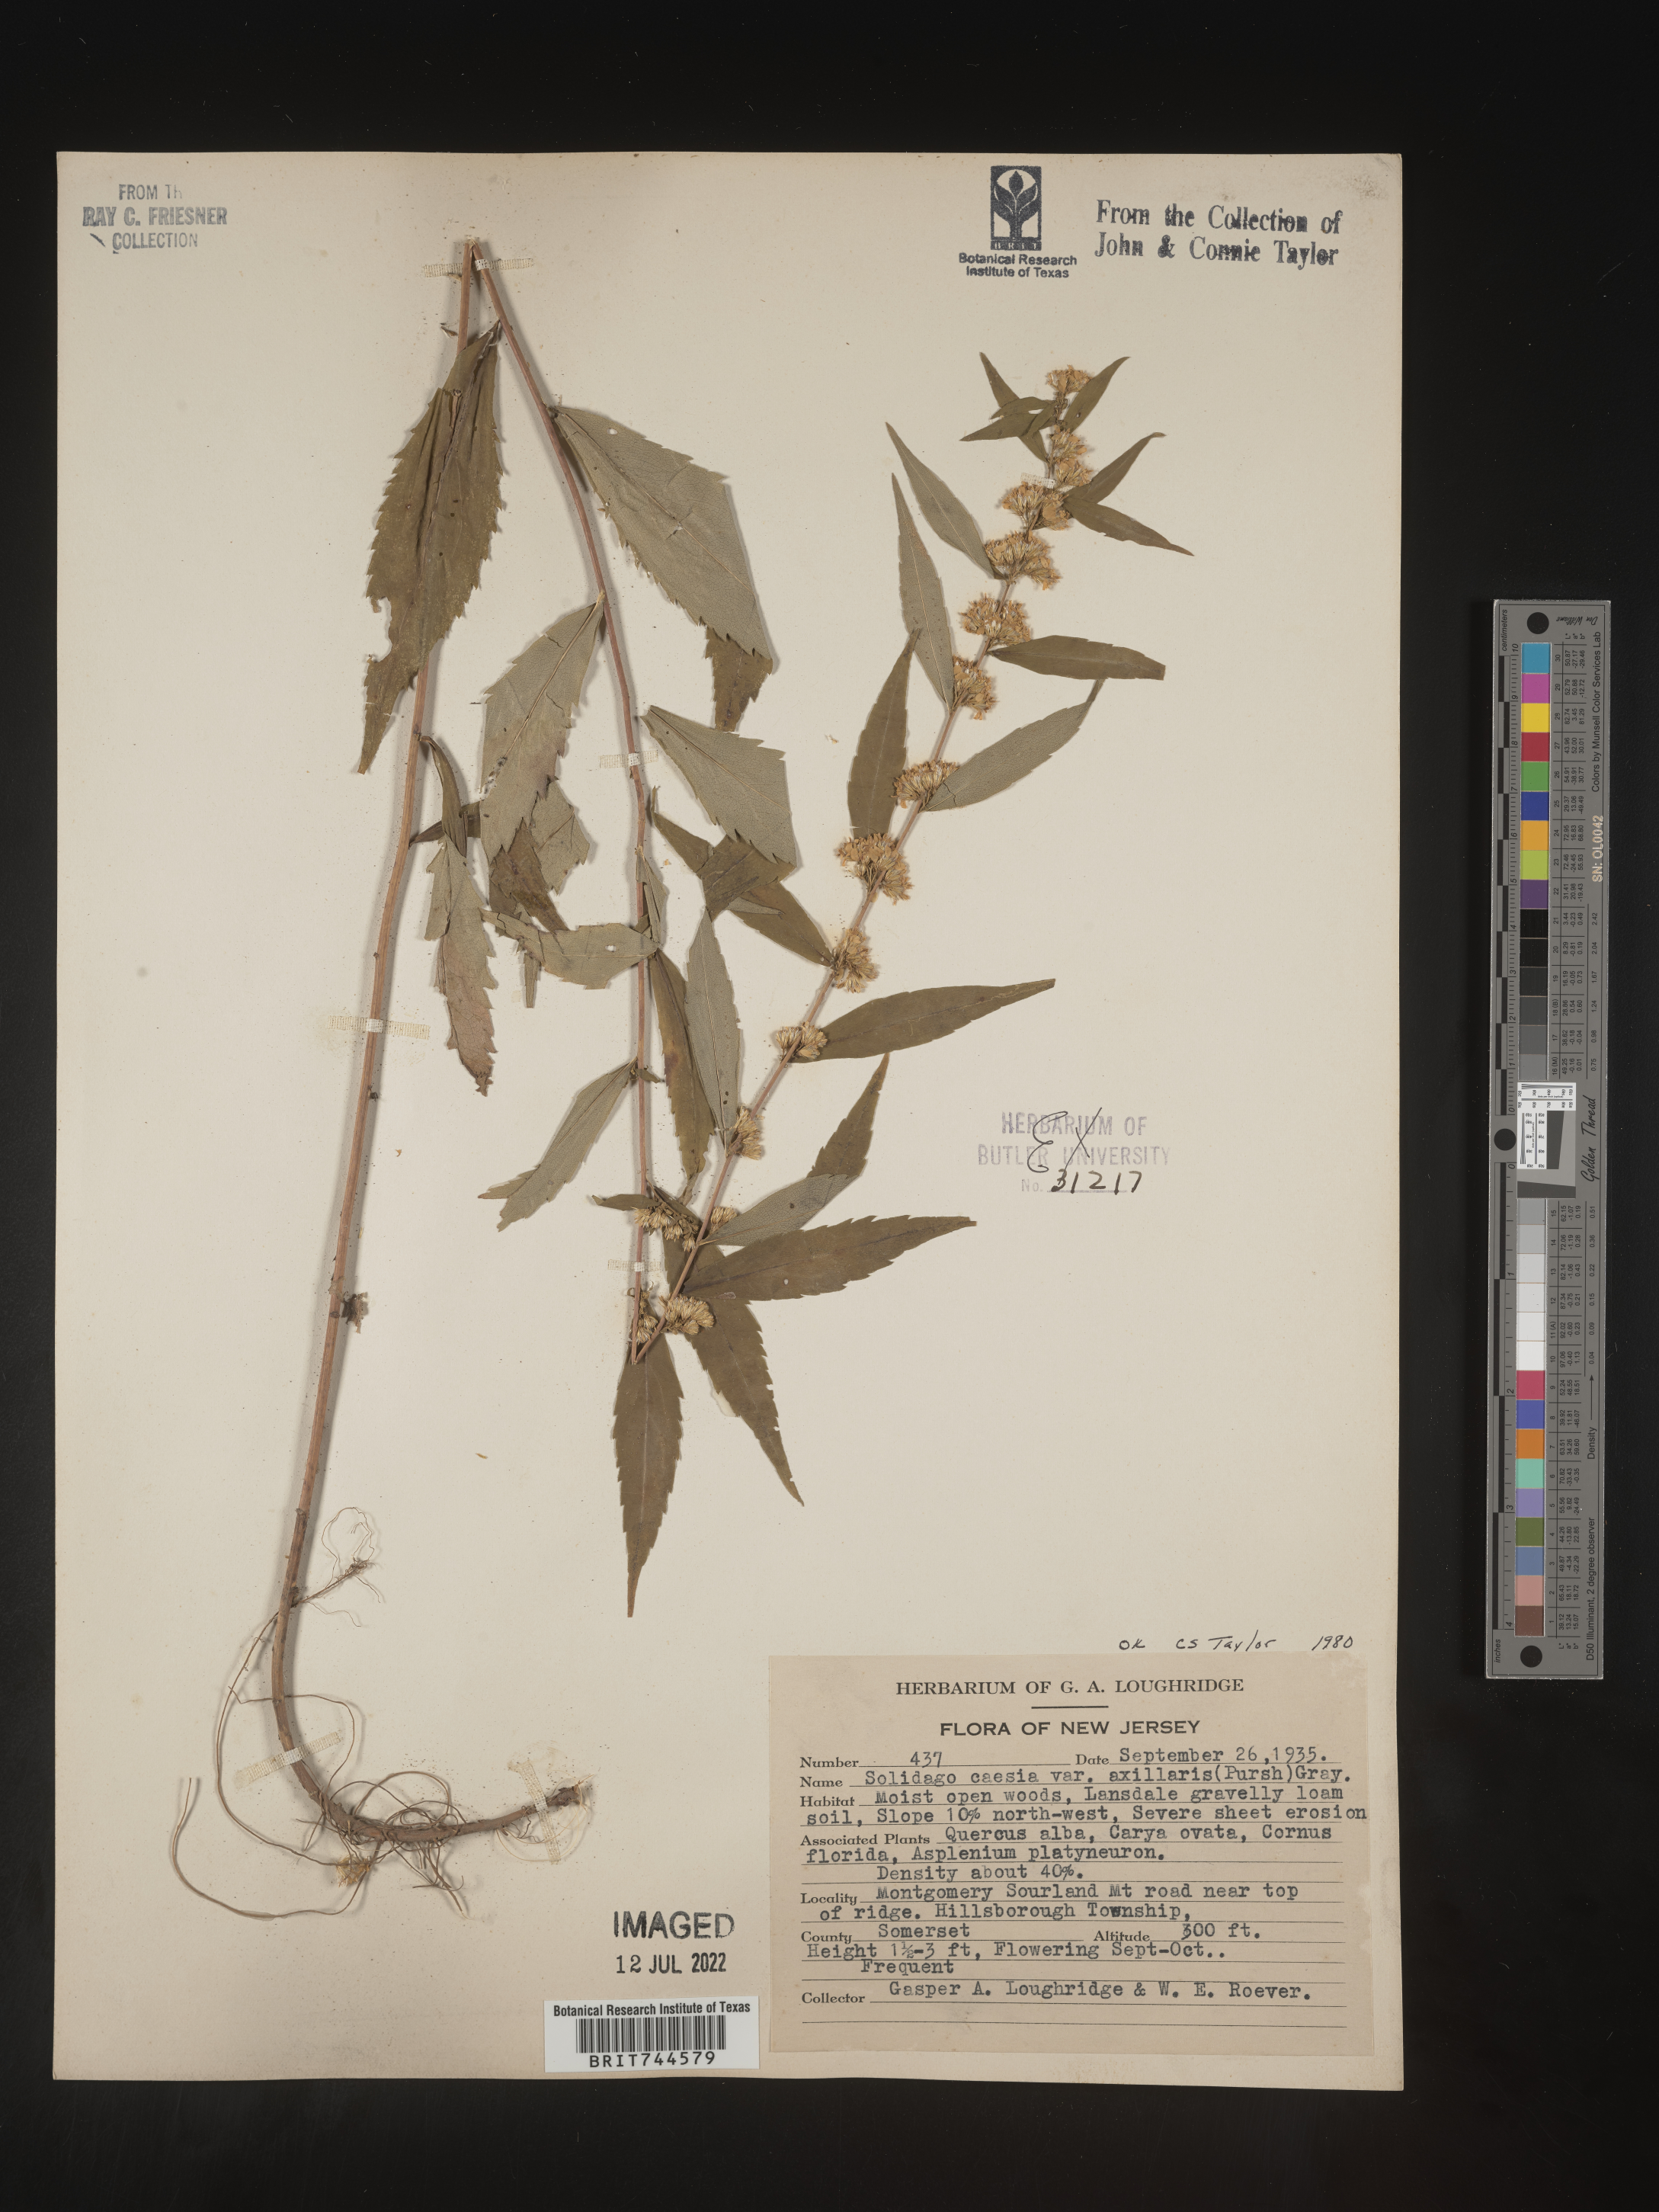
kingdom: Plantae
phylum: Tracheophyta
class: Magnoliopsida
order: Asterales
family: Asteraceae
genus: Solidago
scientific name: Solidago caesia
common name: Woodland goldenrod
